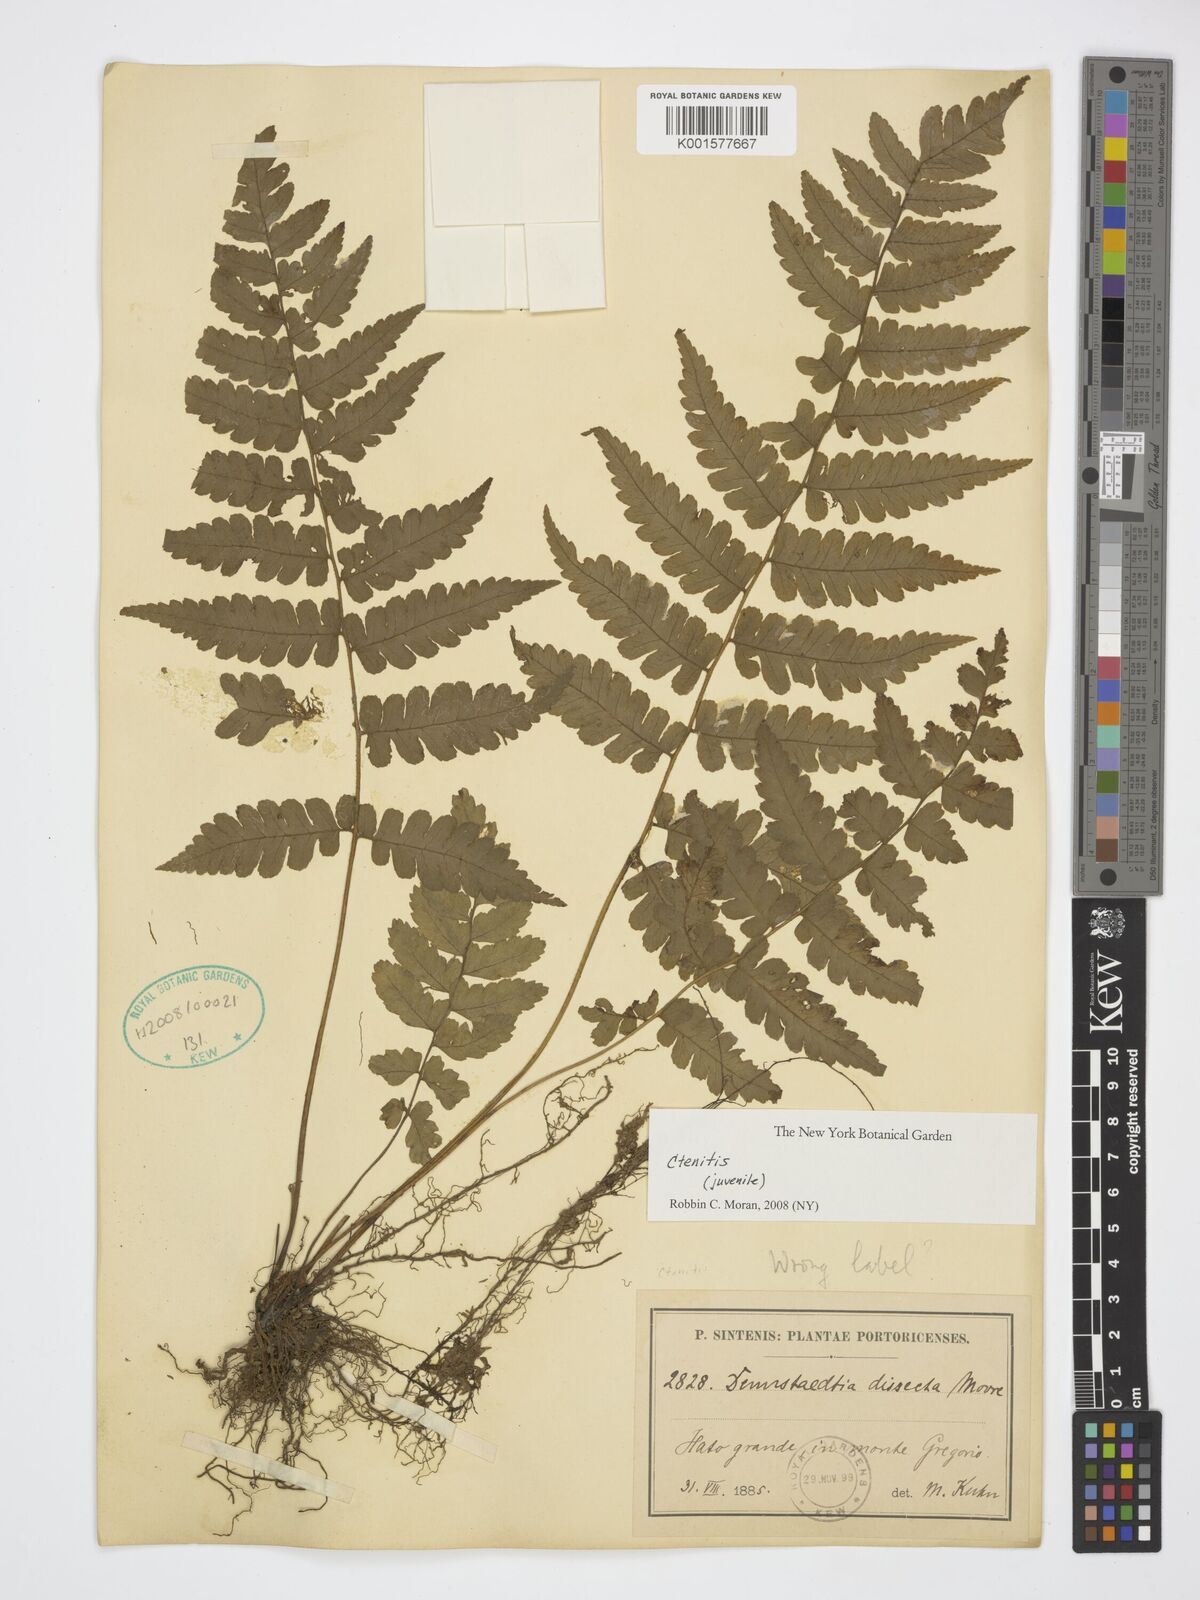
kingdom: Plantae
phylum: Tracheophyta
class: Polypodiopsida
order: Polypodiales
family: Dryopteridaceae
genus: Ctenitis
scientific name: Ctenitis
